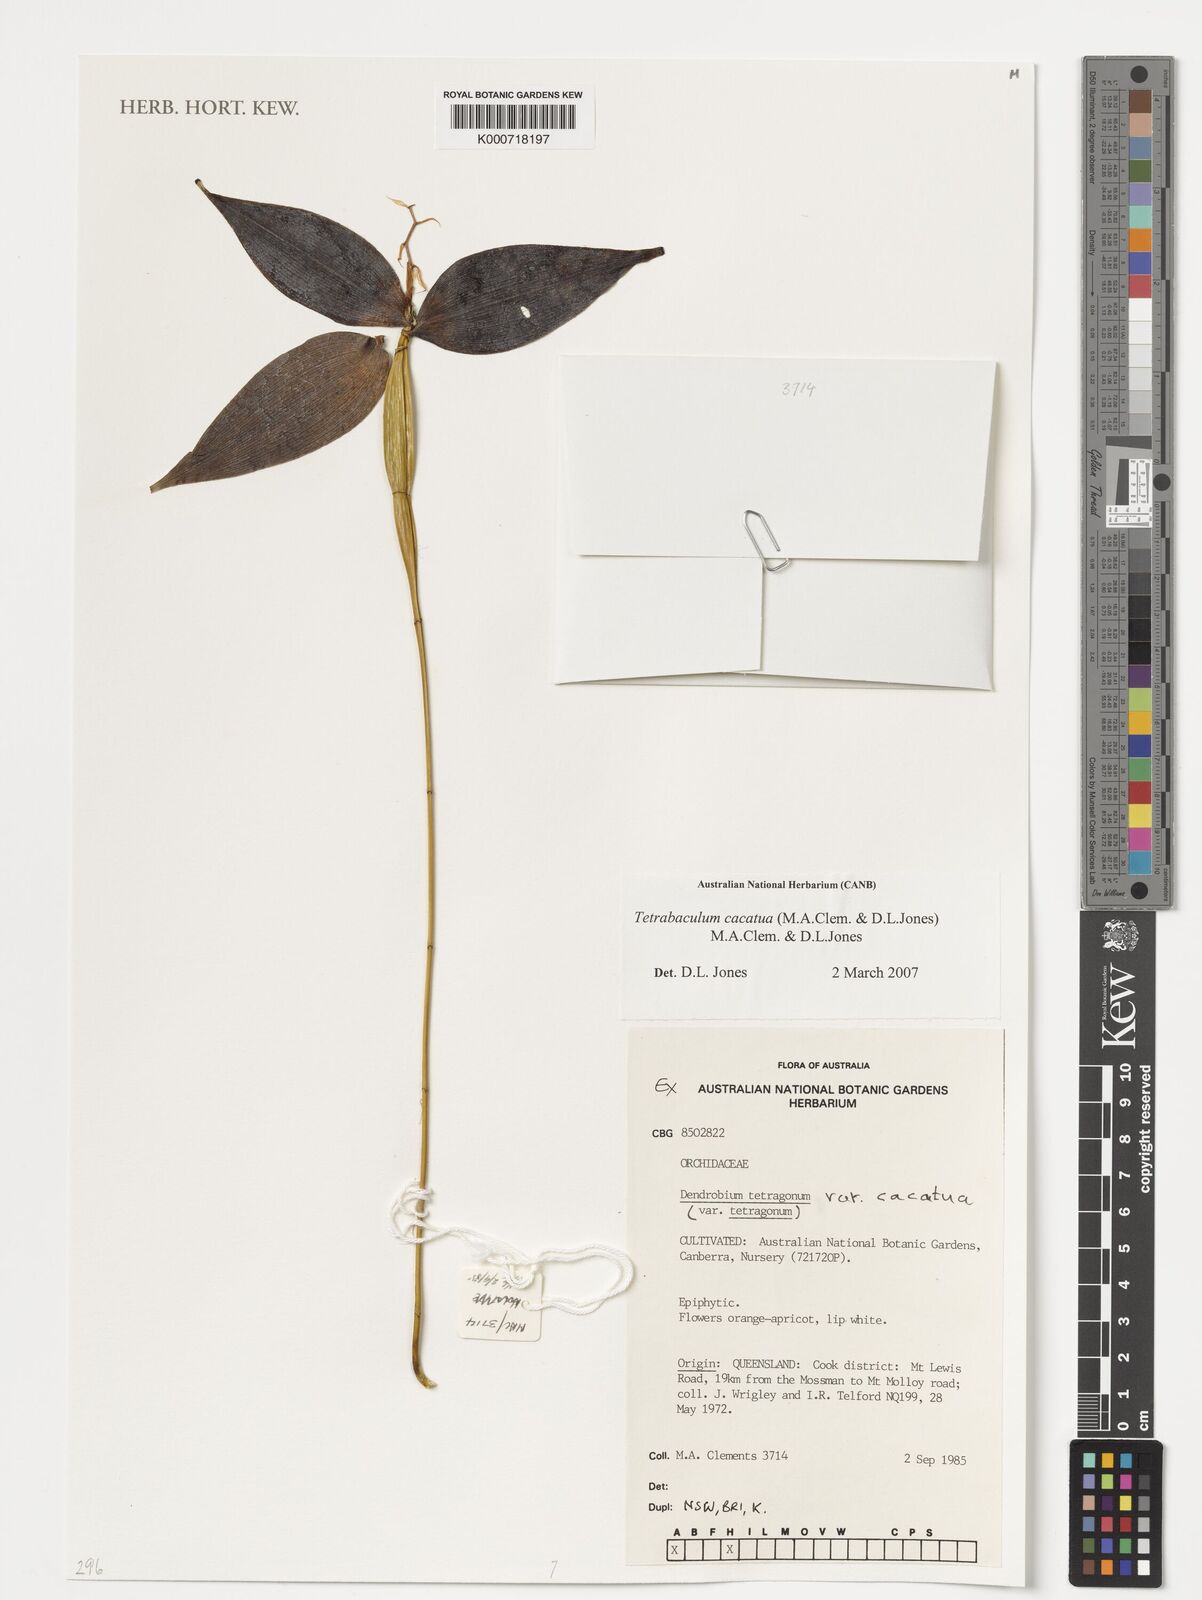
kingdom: Plantae
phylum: Tracheophyta
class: Liliopsida
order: Asparagales
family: Orchidaceae
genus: Dendrobium
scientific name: Dendrobium
